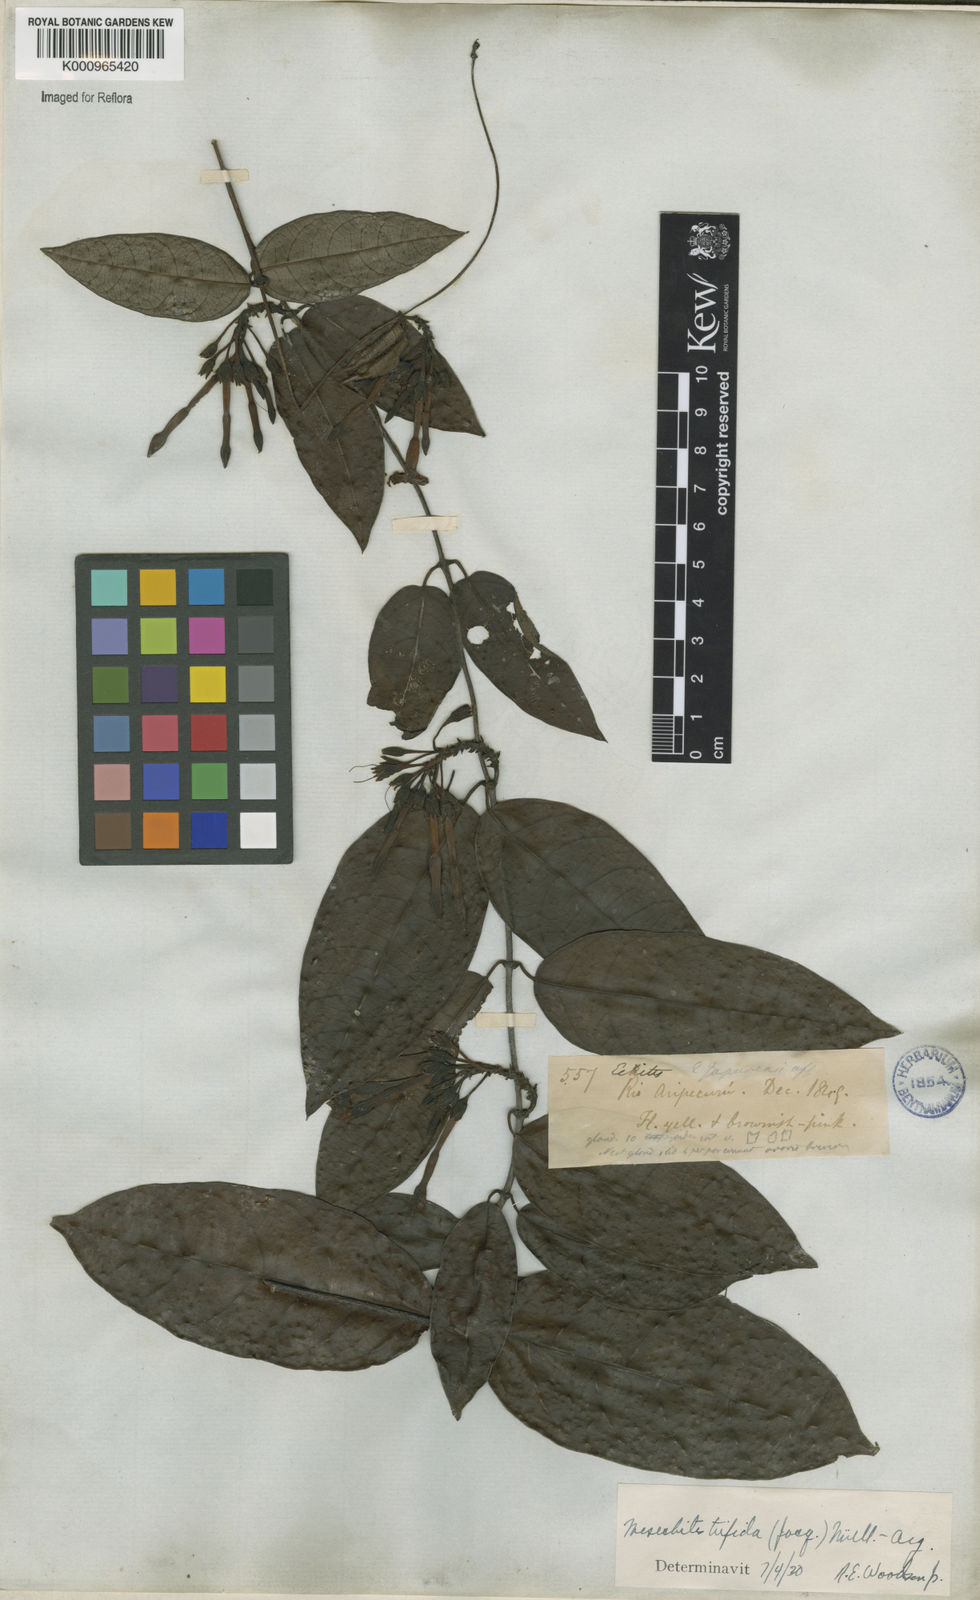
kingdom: Plantae
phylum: Tracheophyta
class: Magnoliopsida
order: Gentianales
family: Apocynaceae
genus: Mesechites
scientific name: Mesechites
